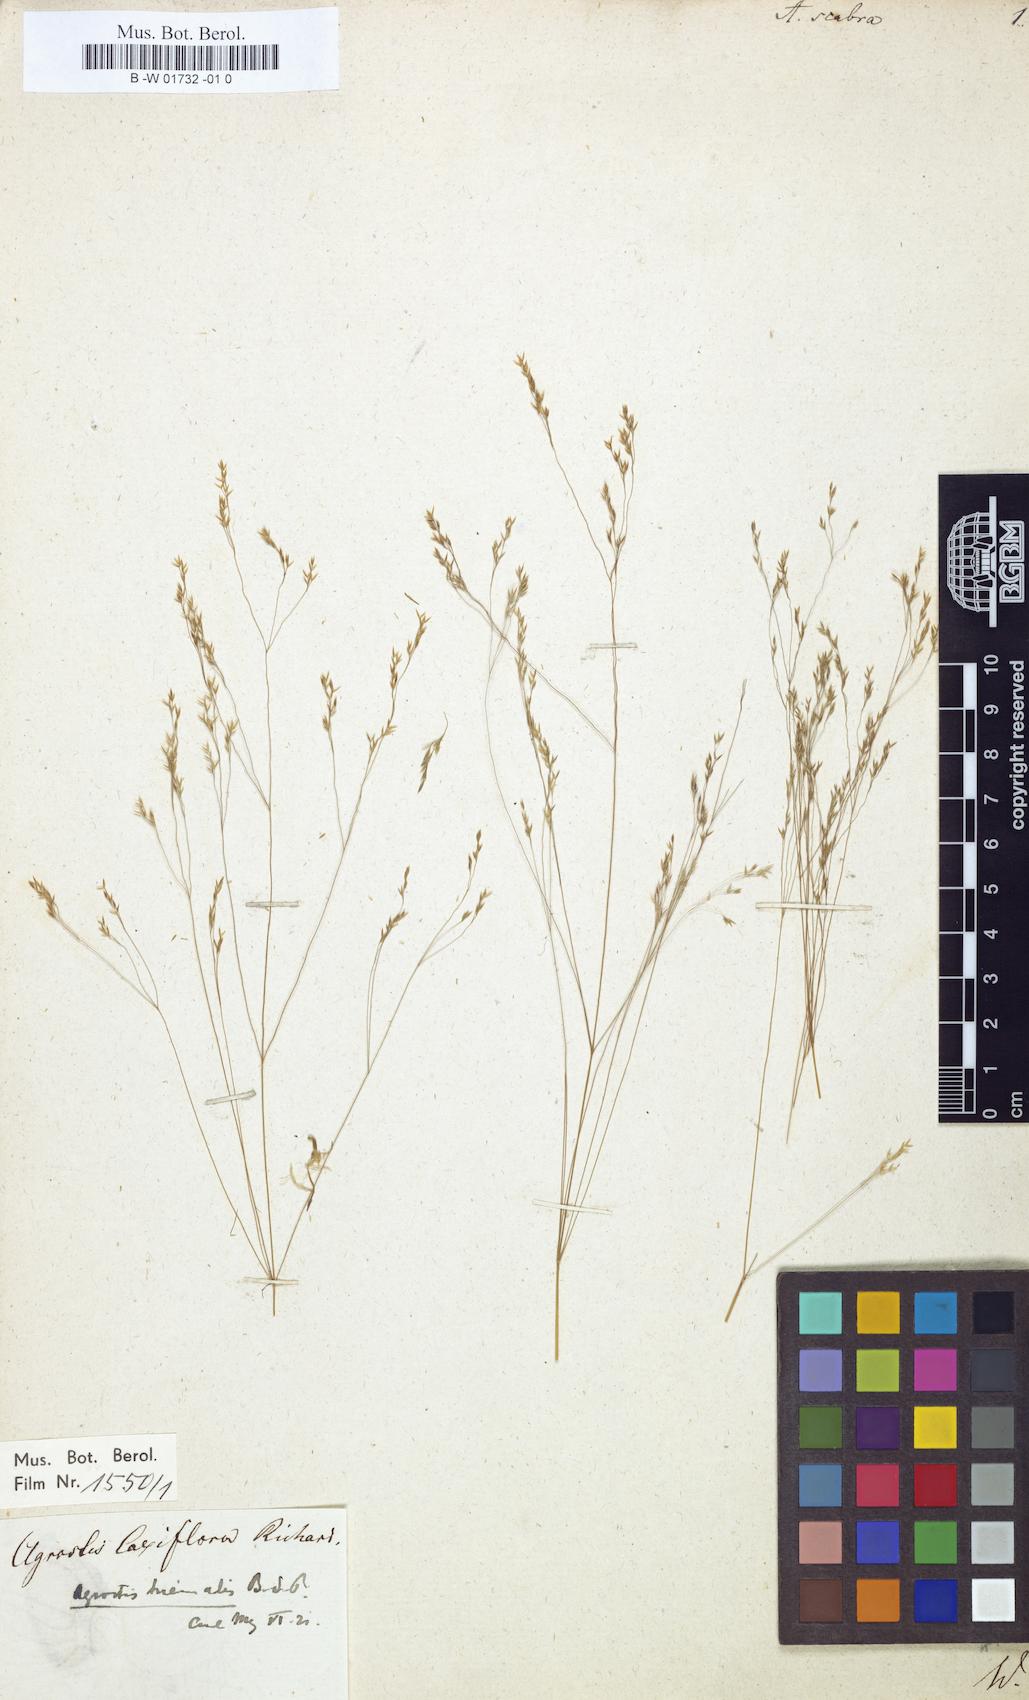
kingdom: Plantae
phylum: Tracheophyta
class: Liliopsida
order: Poales
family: Poaceae
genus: Agrostis
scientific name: Agrostis scabra
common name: Rough bent
